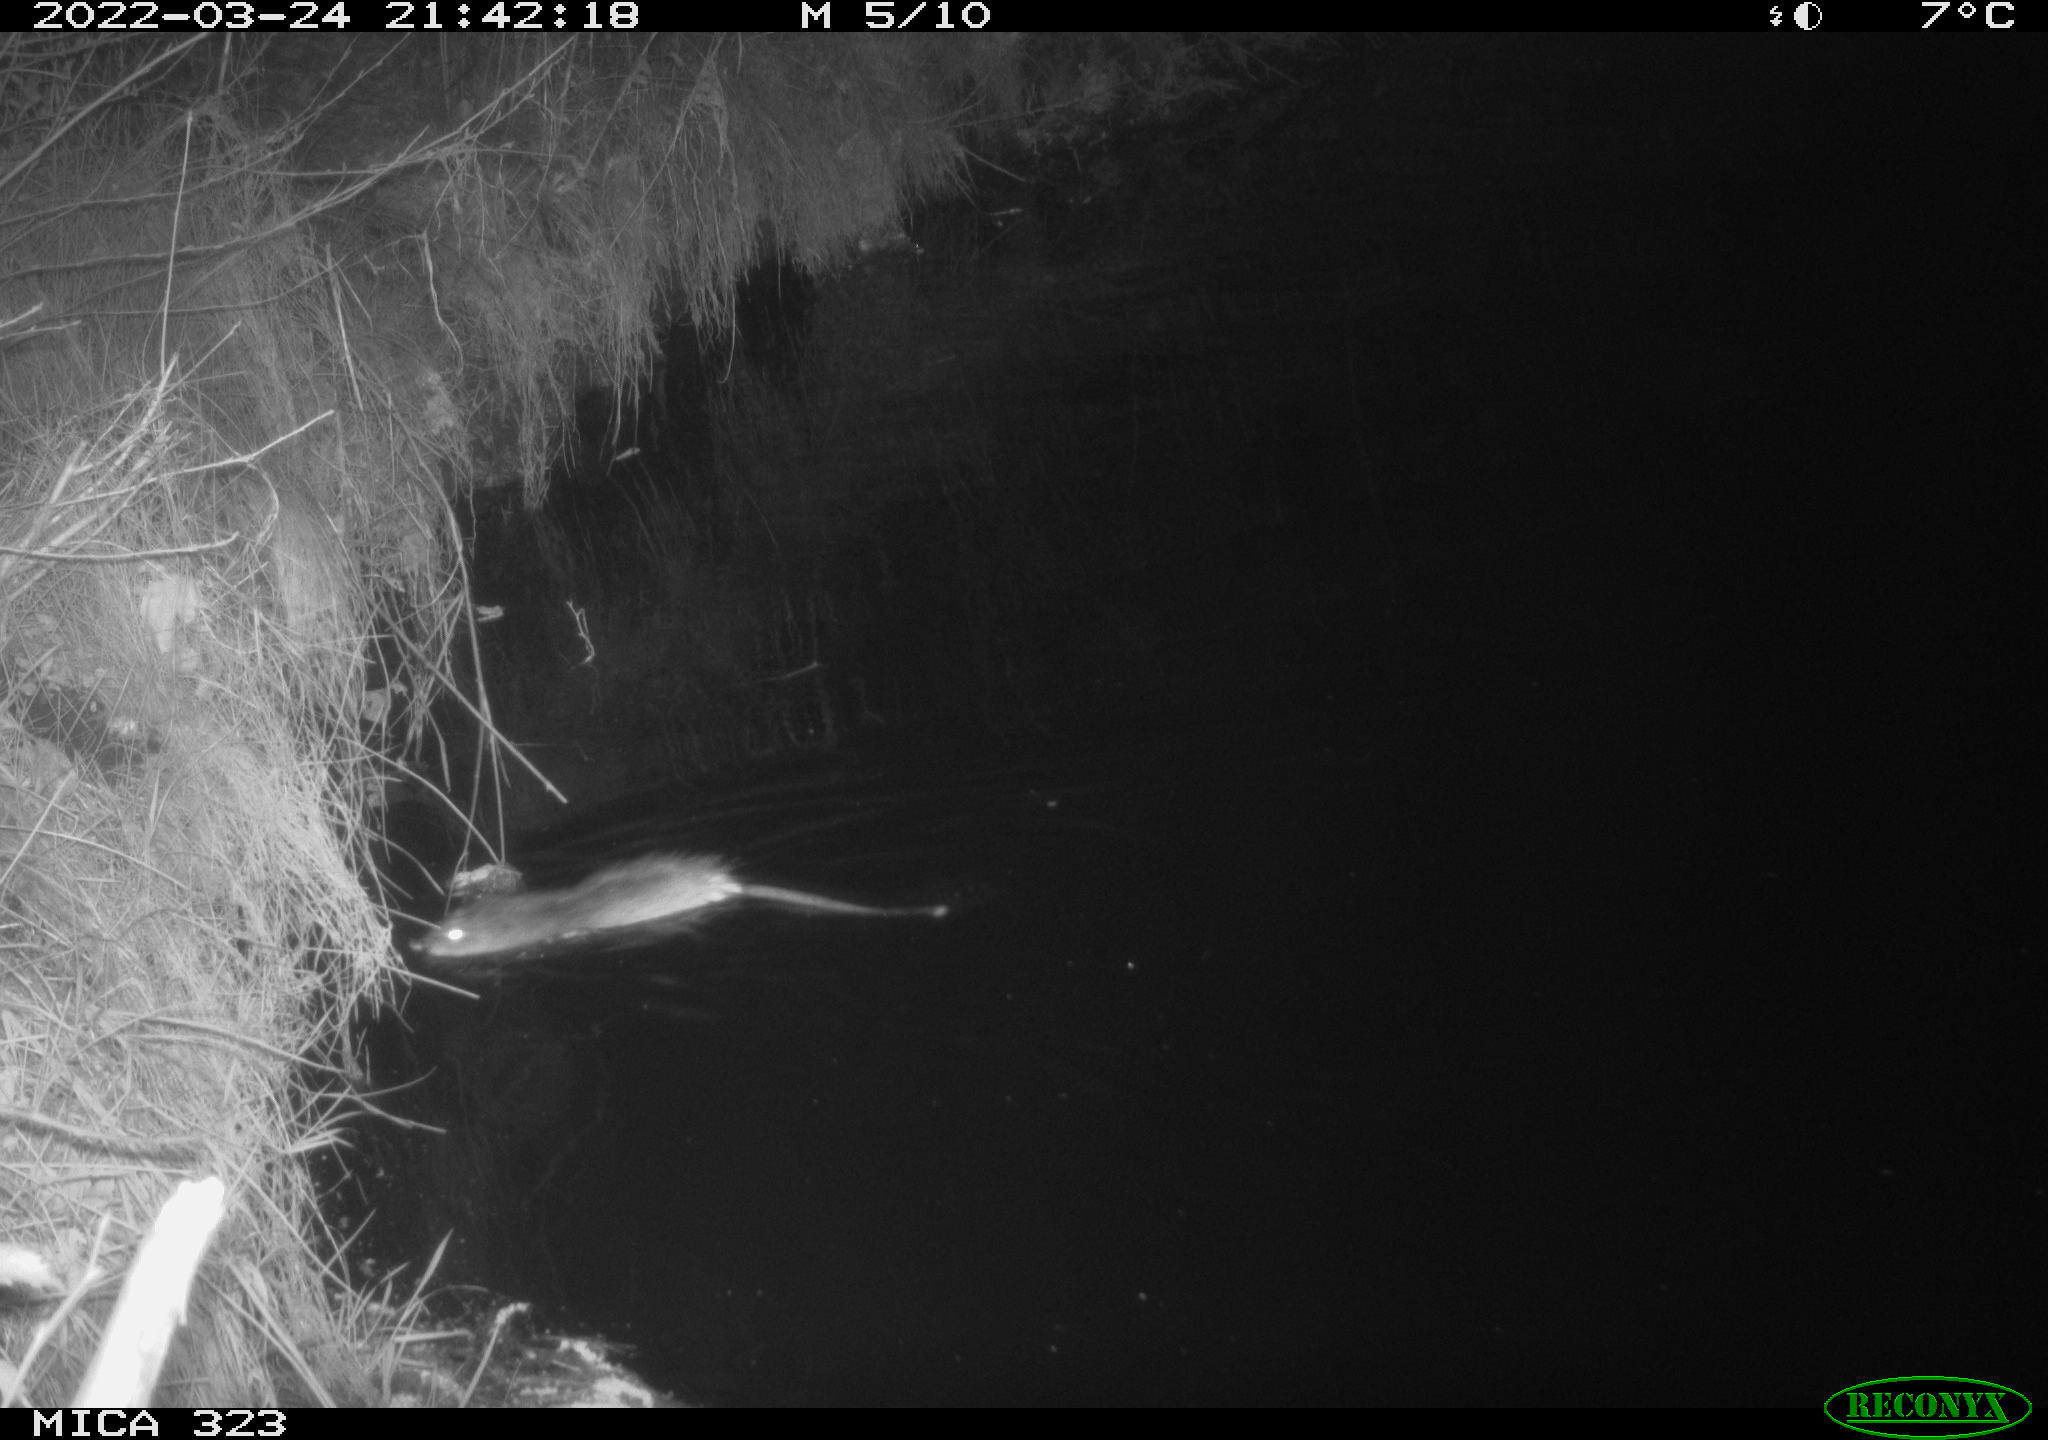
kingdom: Animalia
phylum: Chordata
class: Mammalia
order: Rodentia
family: Cricetidae
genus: Ondatra
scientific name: Ondatra zibethicus
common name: Muskrat
